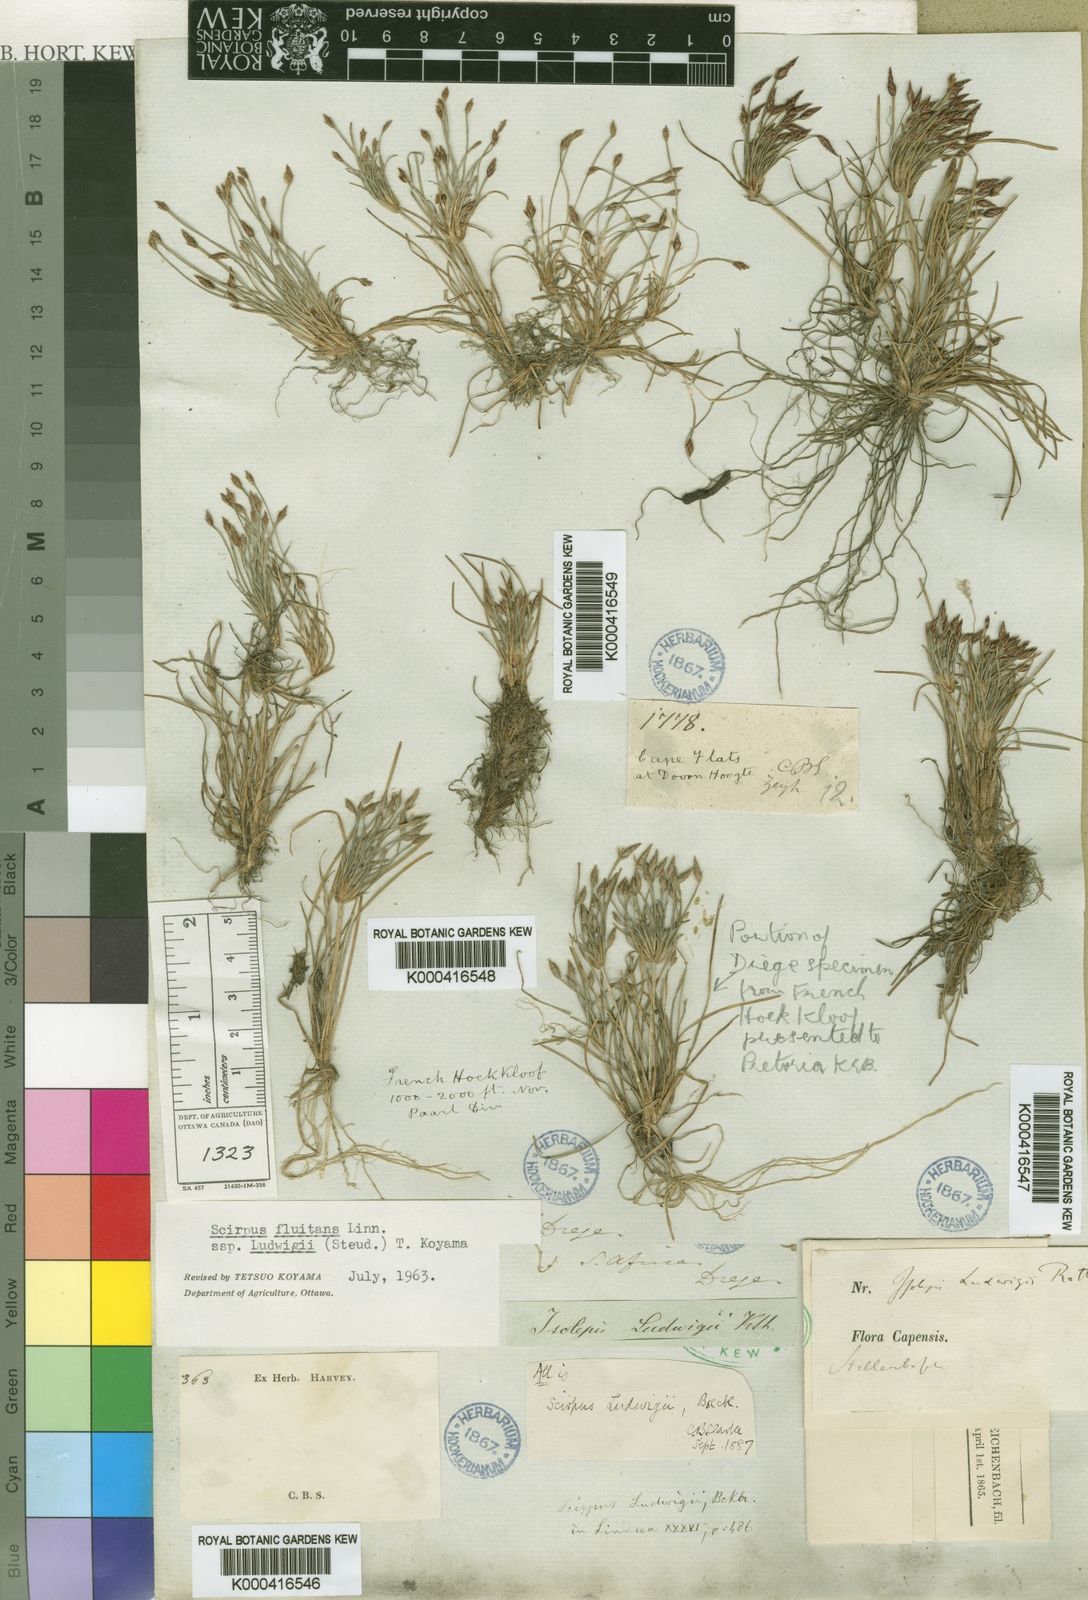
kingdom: Plantae
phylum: Tracheophyta
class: Liliopsida
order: Poales
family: Cyperaceae
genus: Isolepis
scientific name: Isolepis ludwigii
